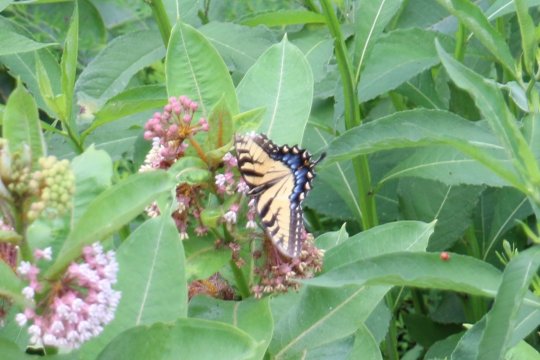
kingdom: Animalia
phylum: Arthropoda
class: Insecta
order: Lepidoptera
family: Papilionidae
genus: Pterourus
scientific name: Pterourus glaucus
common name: Eastern Tiger Swallowtail
